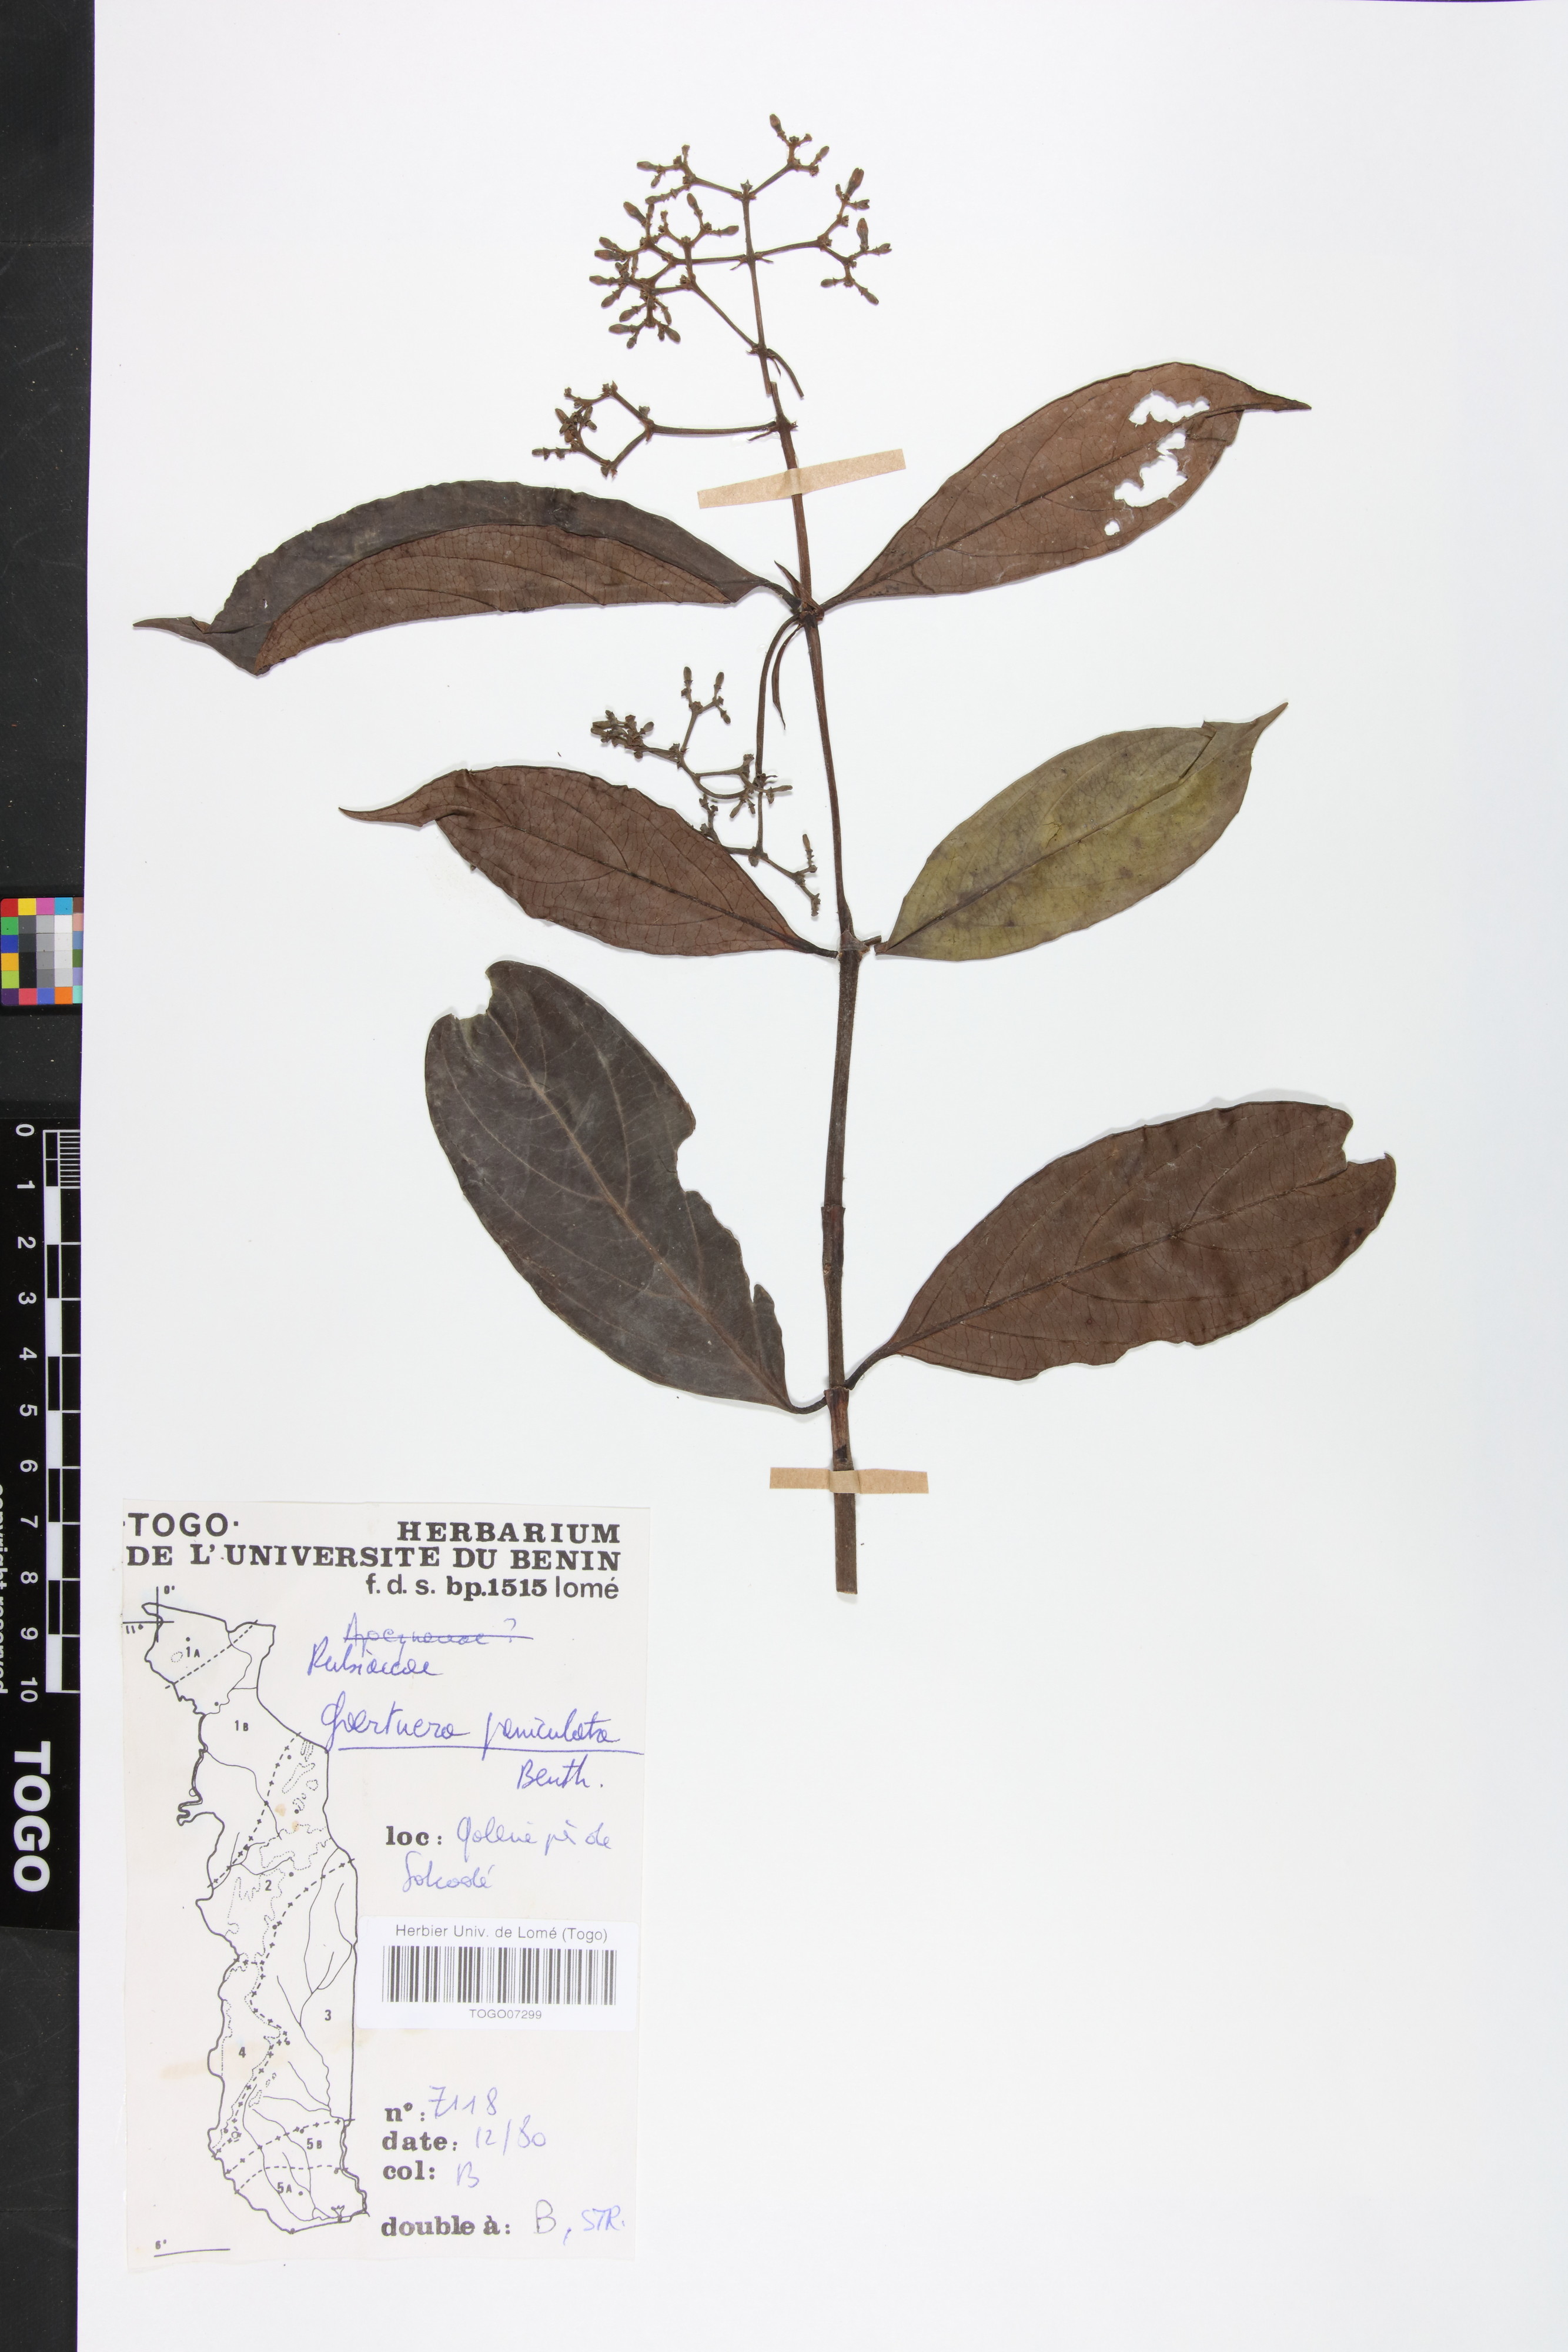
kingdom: Plantae
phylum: Tracheophyta
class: Magnoliopsida
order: Gentianales
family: Rubiaceae
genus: Gaertnera
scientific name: Gaertnera paniculata
